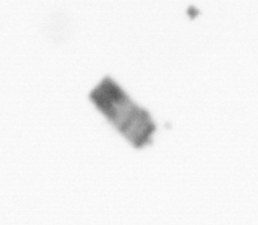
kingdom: Chromista
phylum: Ochrophyta
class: Bacillariophyceae
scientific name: Bacillariophyceae
